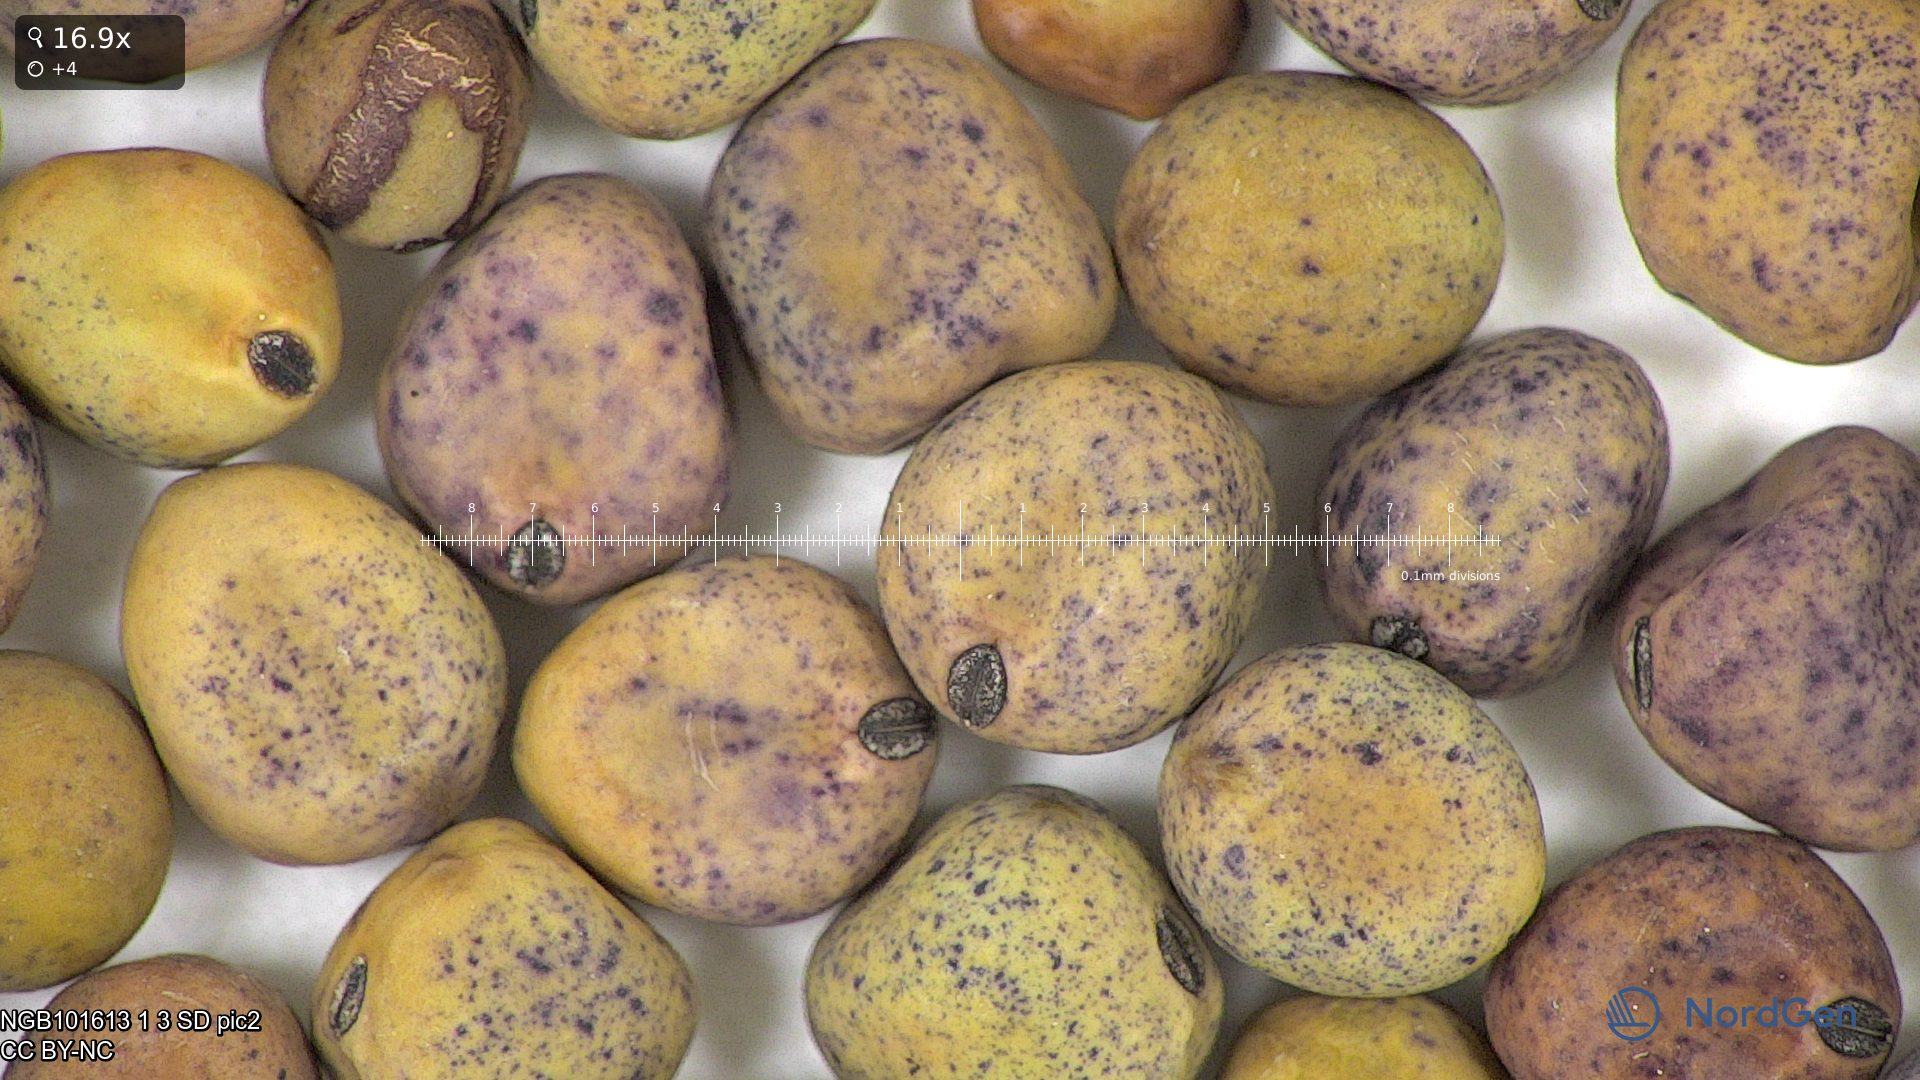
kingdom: Plantae
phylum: Tracheophyta
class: Magnoliopsida
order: Fabales
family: Fabaceae
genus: Lathyrus
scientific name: Lathyrus oleraceus
